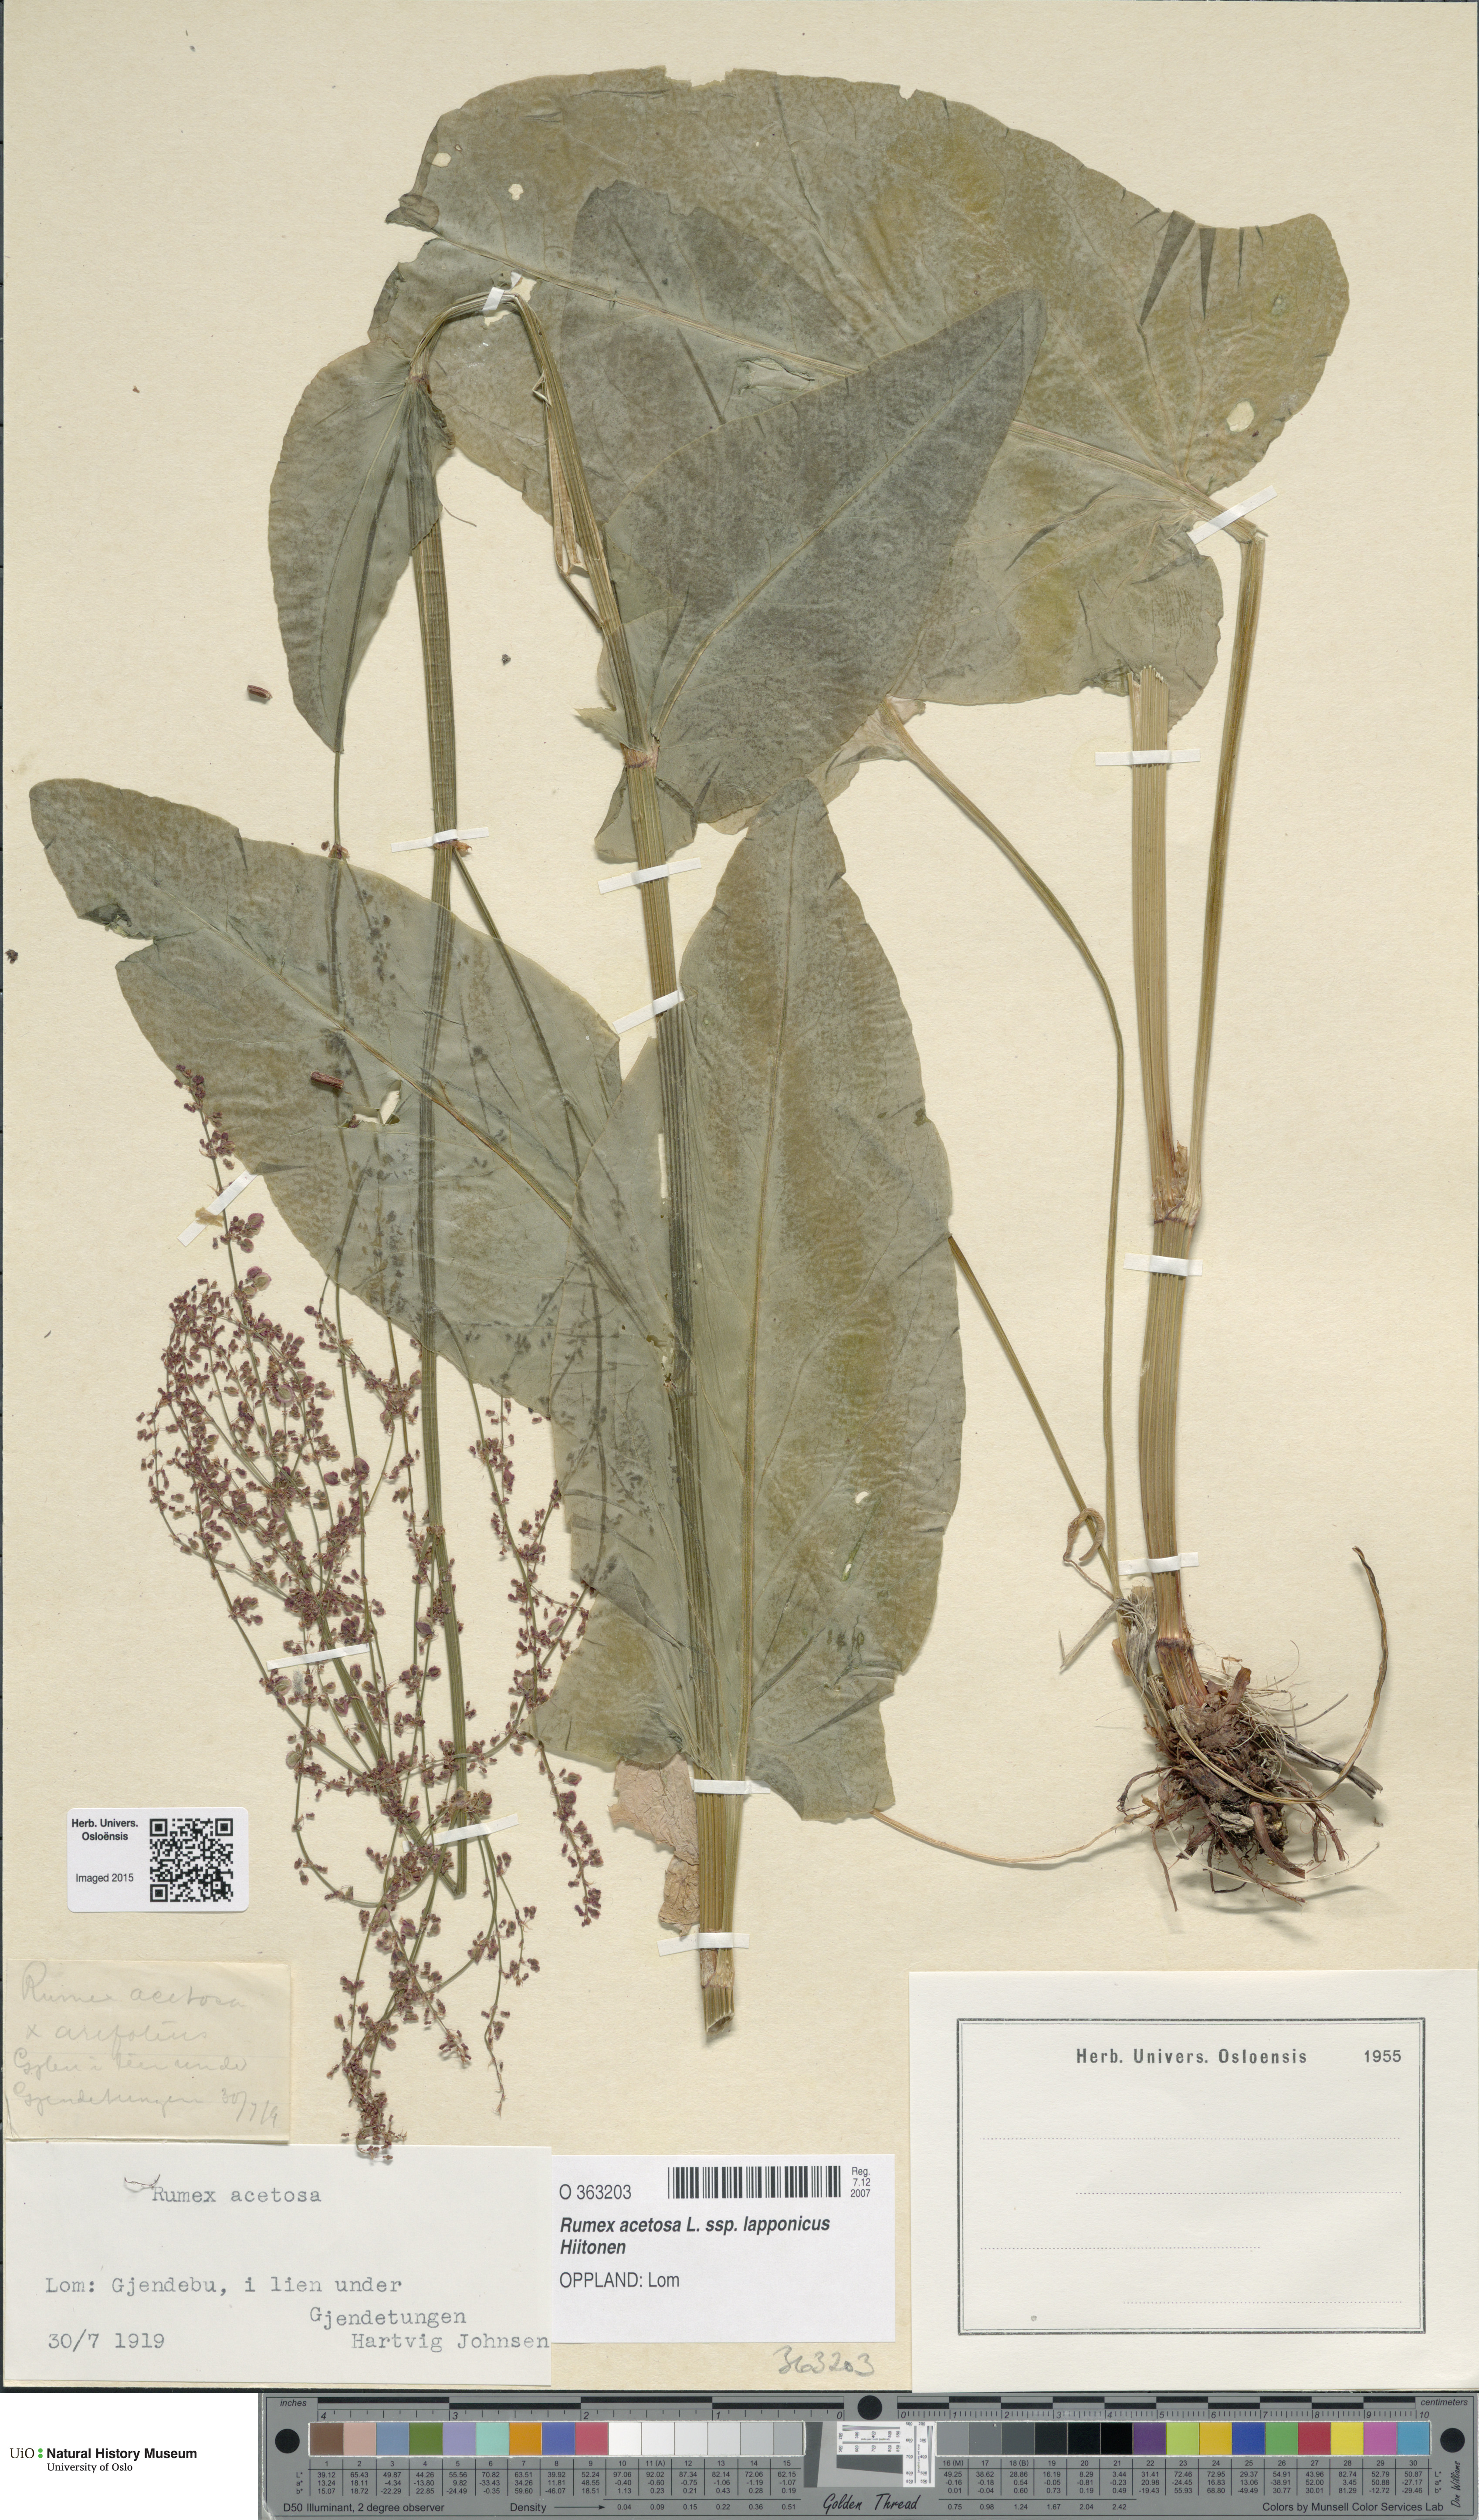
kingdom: Plantae
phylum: Tracheophyta
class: Magnoliopsida
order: Caryophyllales
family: Polygonaceae
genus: Rumex
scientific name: Rumex arifolius
